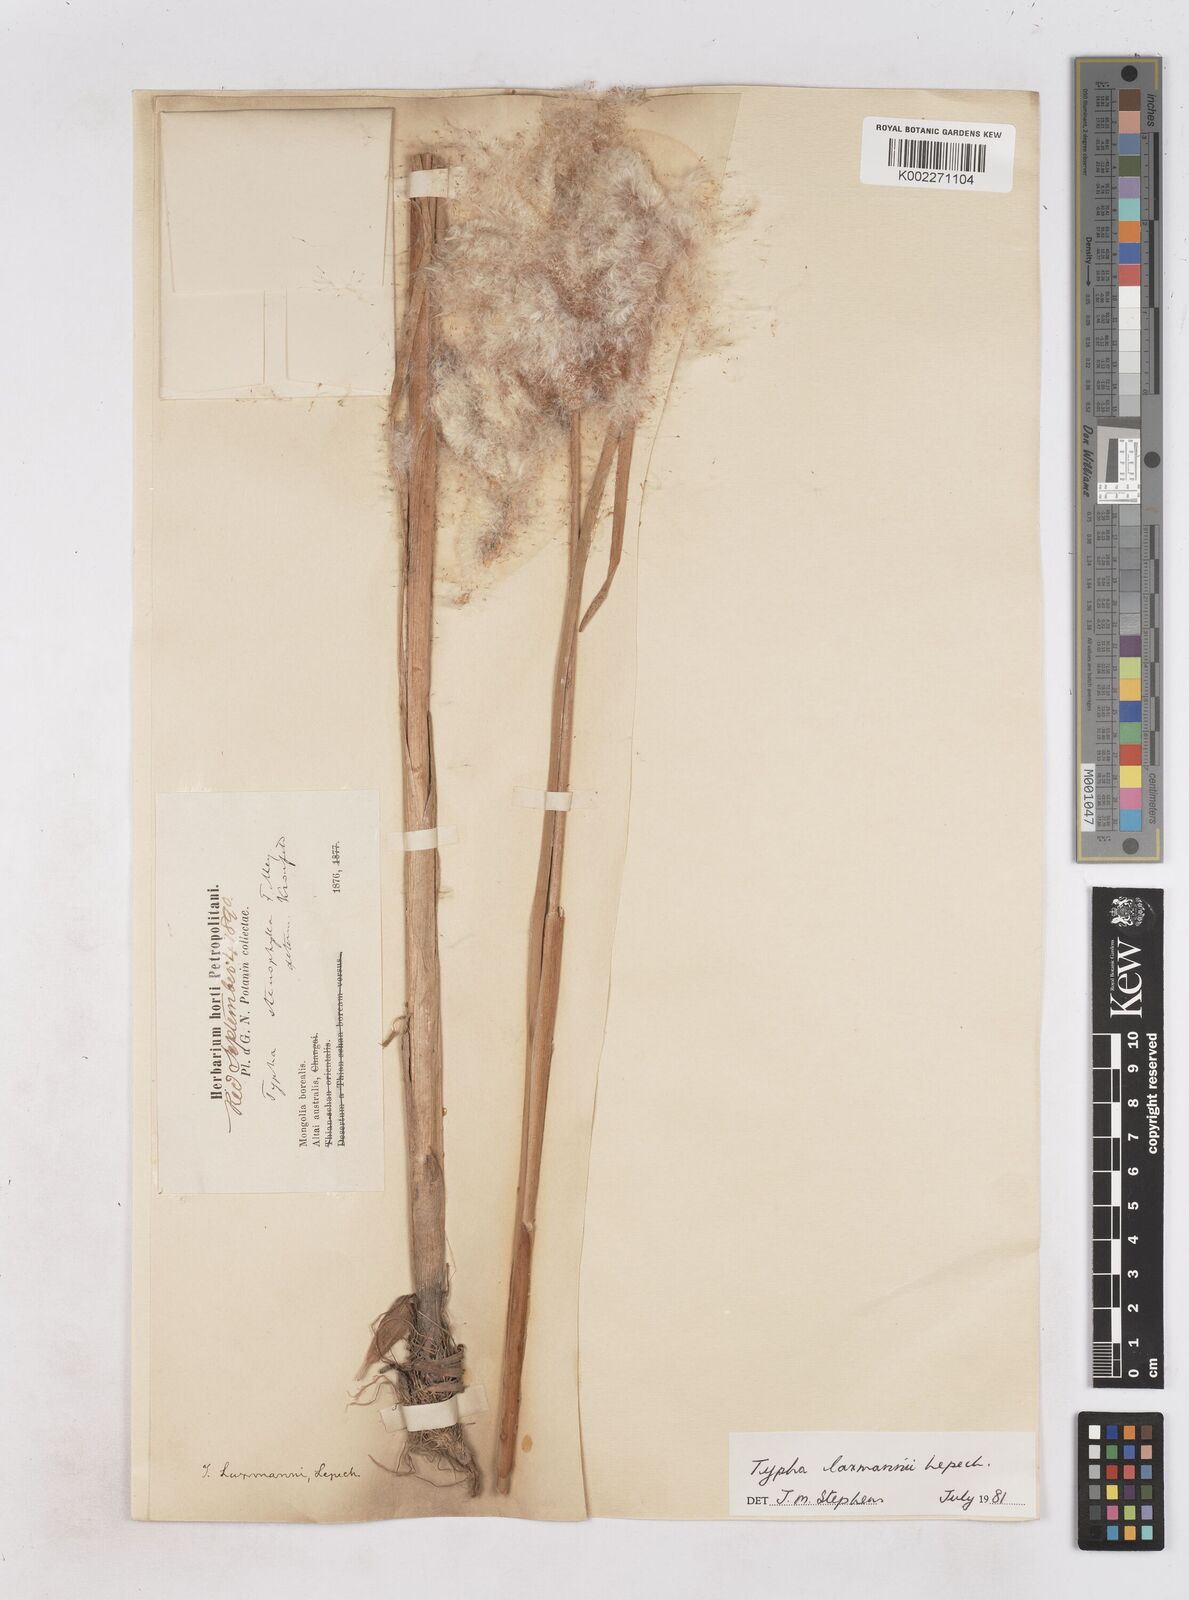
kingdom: Plantae
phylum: Tracheophyta
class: Liliopsida
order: Poales
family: Typhaceae
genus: Typha
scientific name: Typha laxmannii
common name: Laxman’s bulrush
